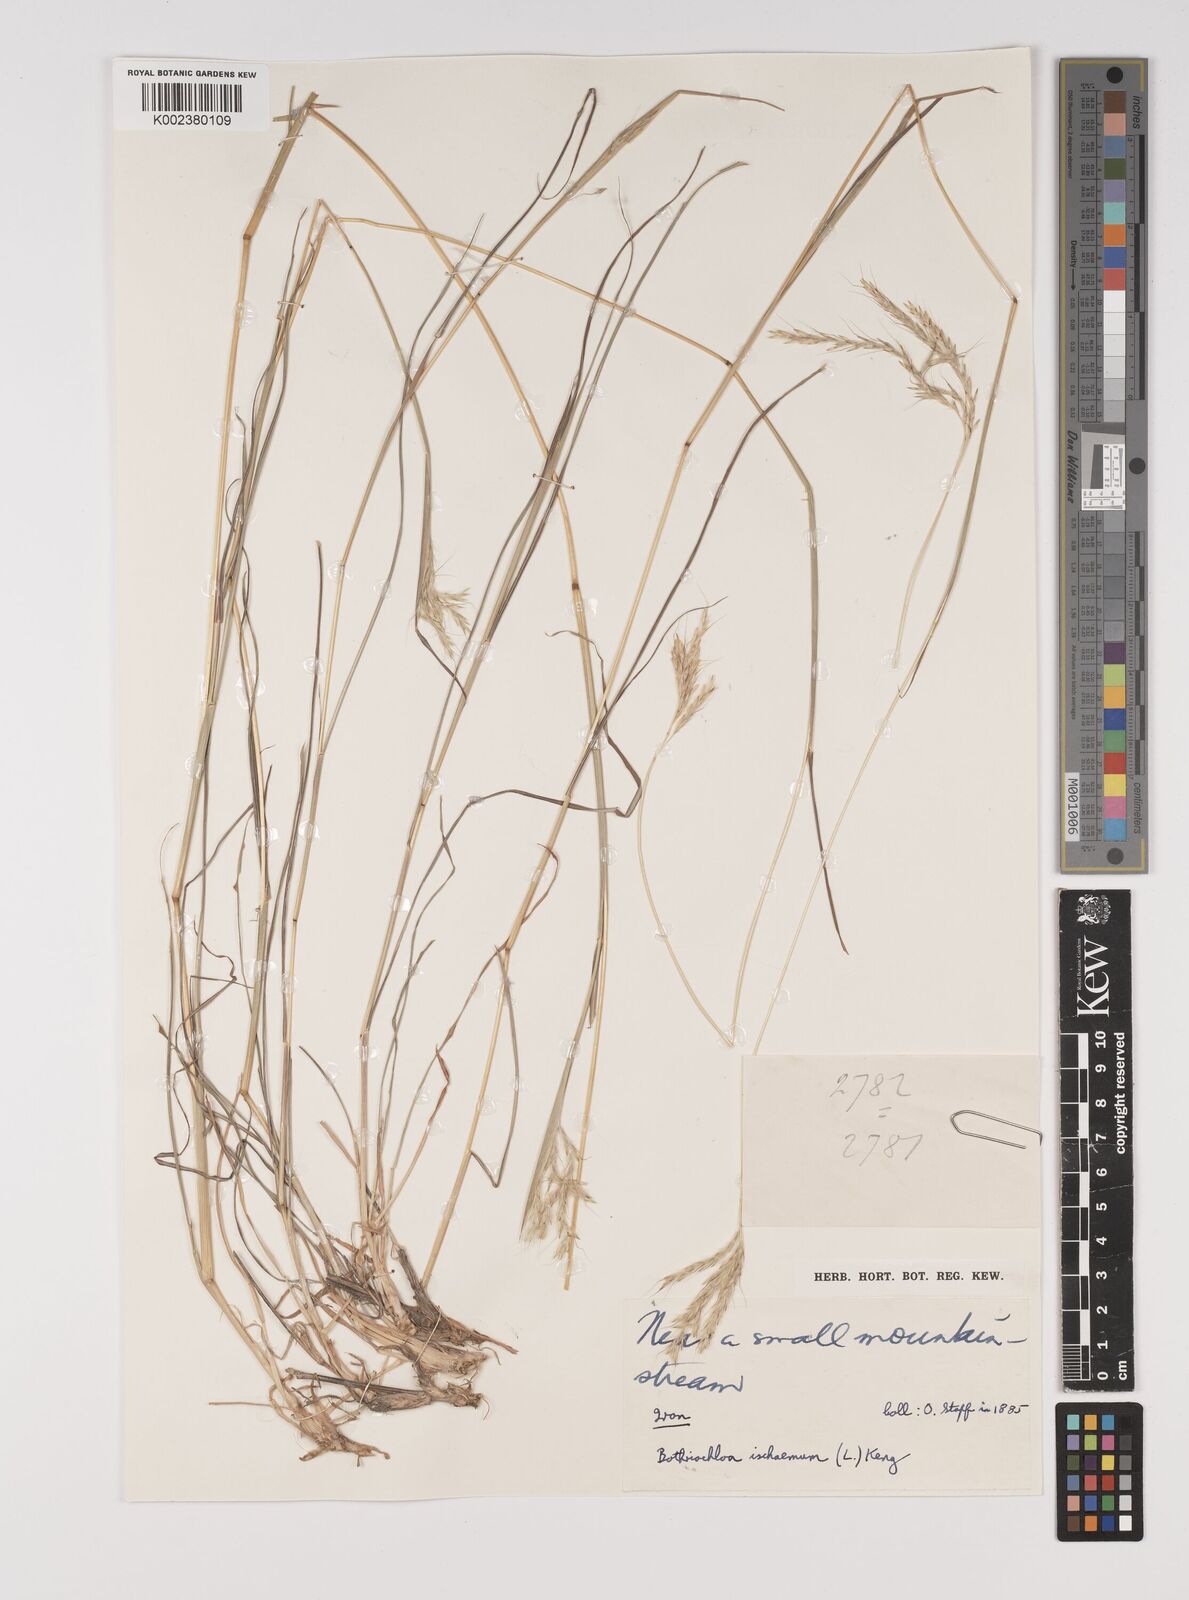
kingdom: Plantae
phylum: Tracheophyta
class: Liliopsida
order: Poales
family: Poaceae
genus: Bothriochloa
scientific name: Bothriochloa ischaemum
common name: Yellow bluestem
